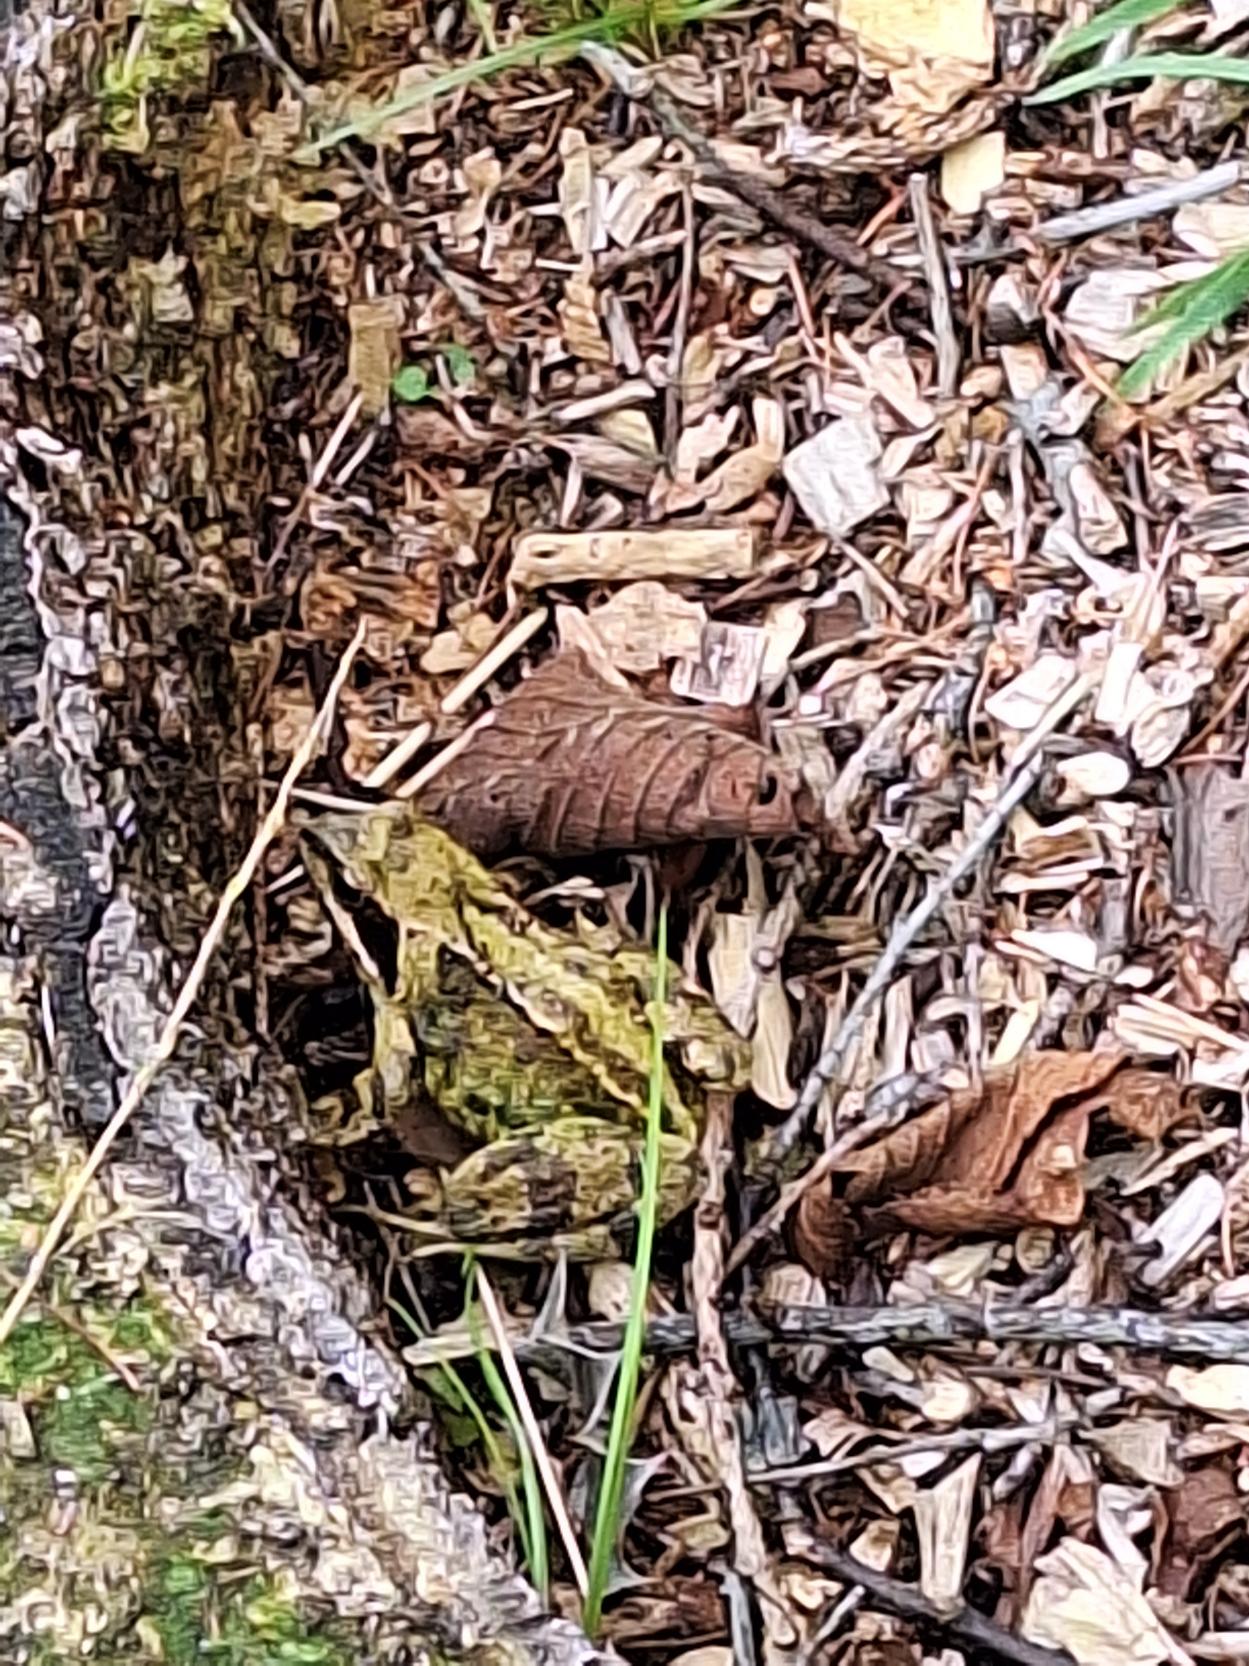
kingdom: Animalia
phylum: Chordata
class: Amphibia
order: Anura
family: Ranidae
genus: Rana
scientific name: Rana temporaria
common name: Butsnudet frø
